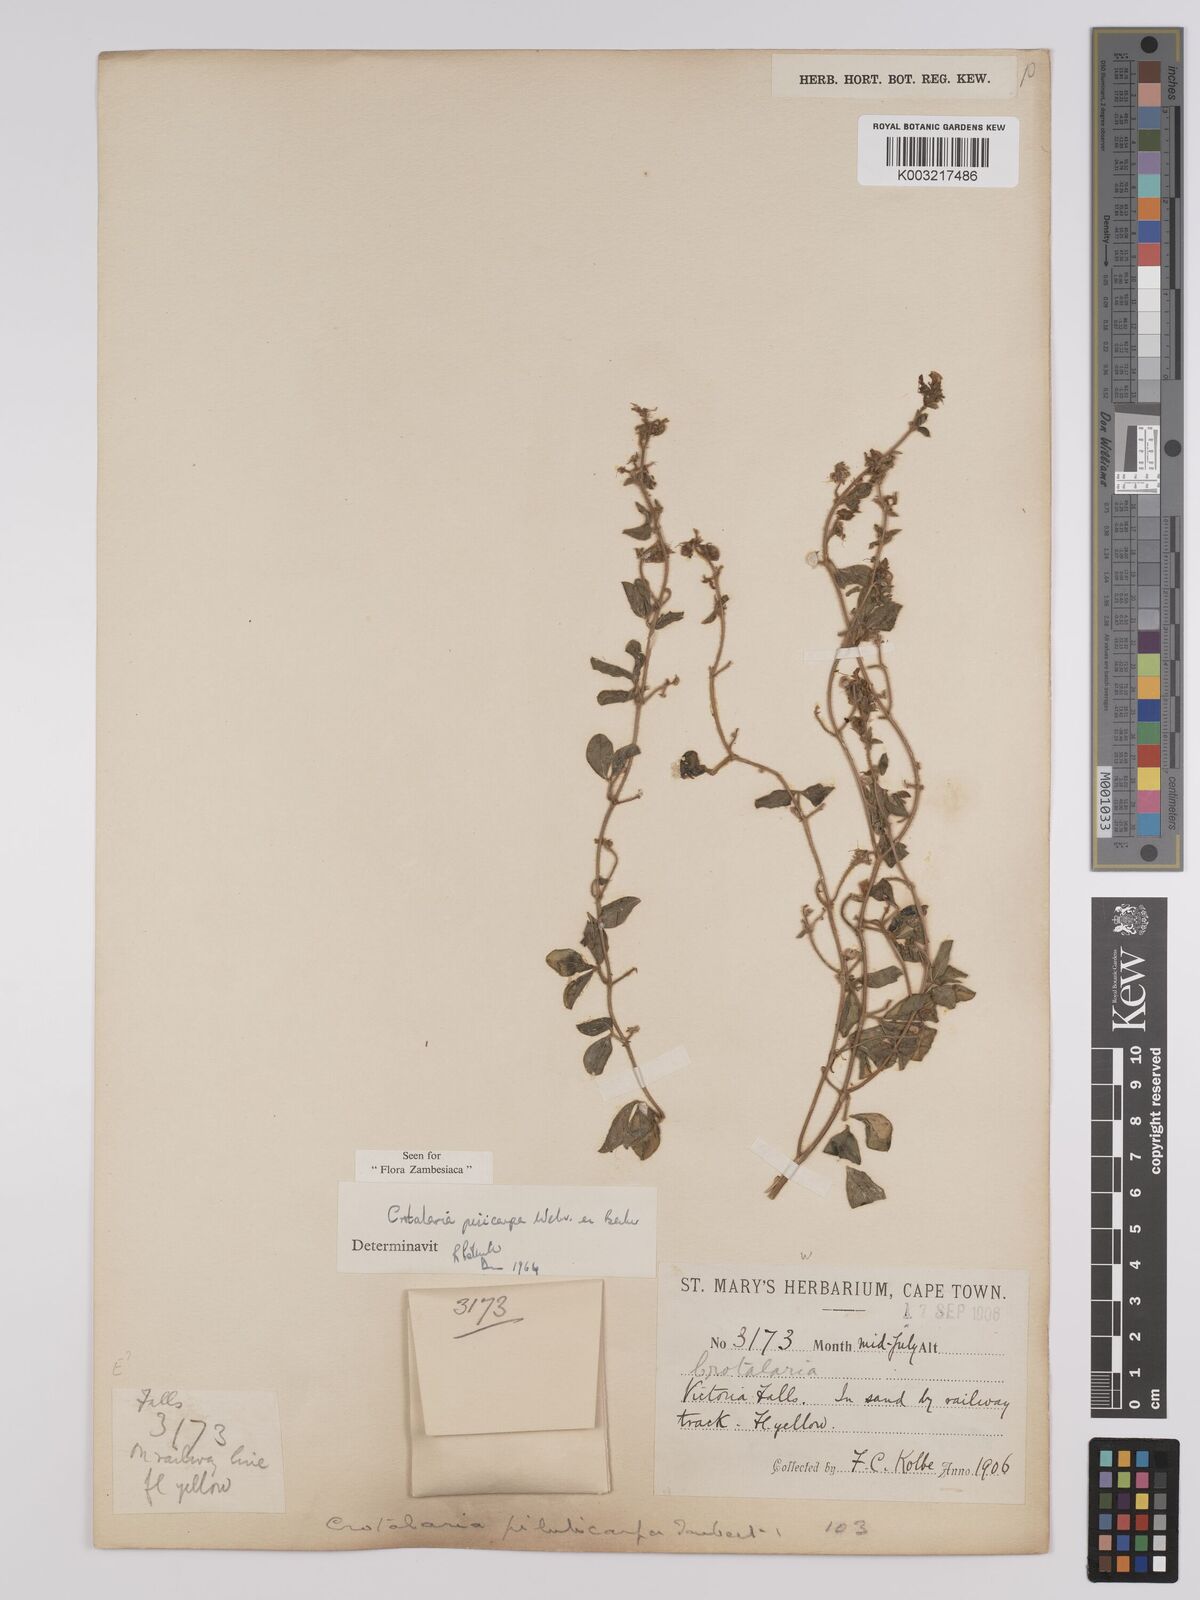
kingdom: Plantae
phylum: Tracheophyta
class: Magnoliopsida
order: Fabales
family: Fabaceae
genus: Crotalaria
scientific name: Crotalaria pisicarpa
